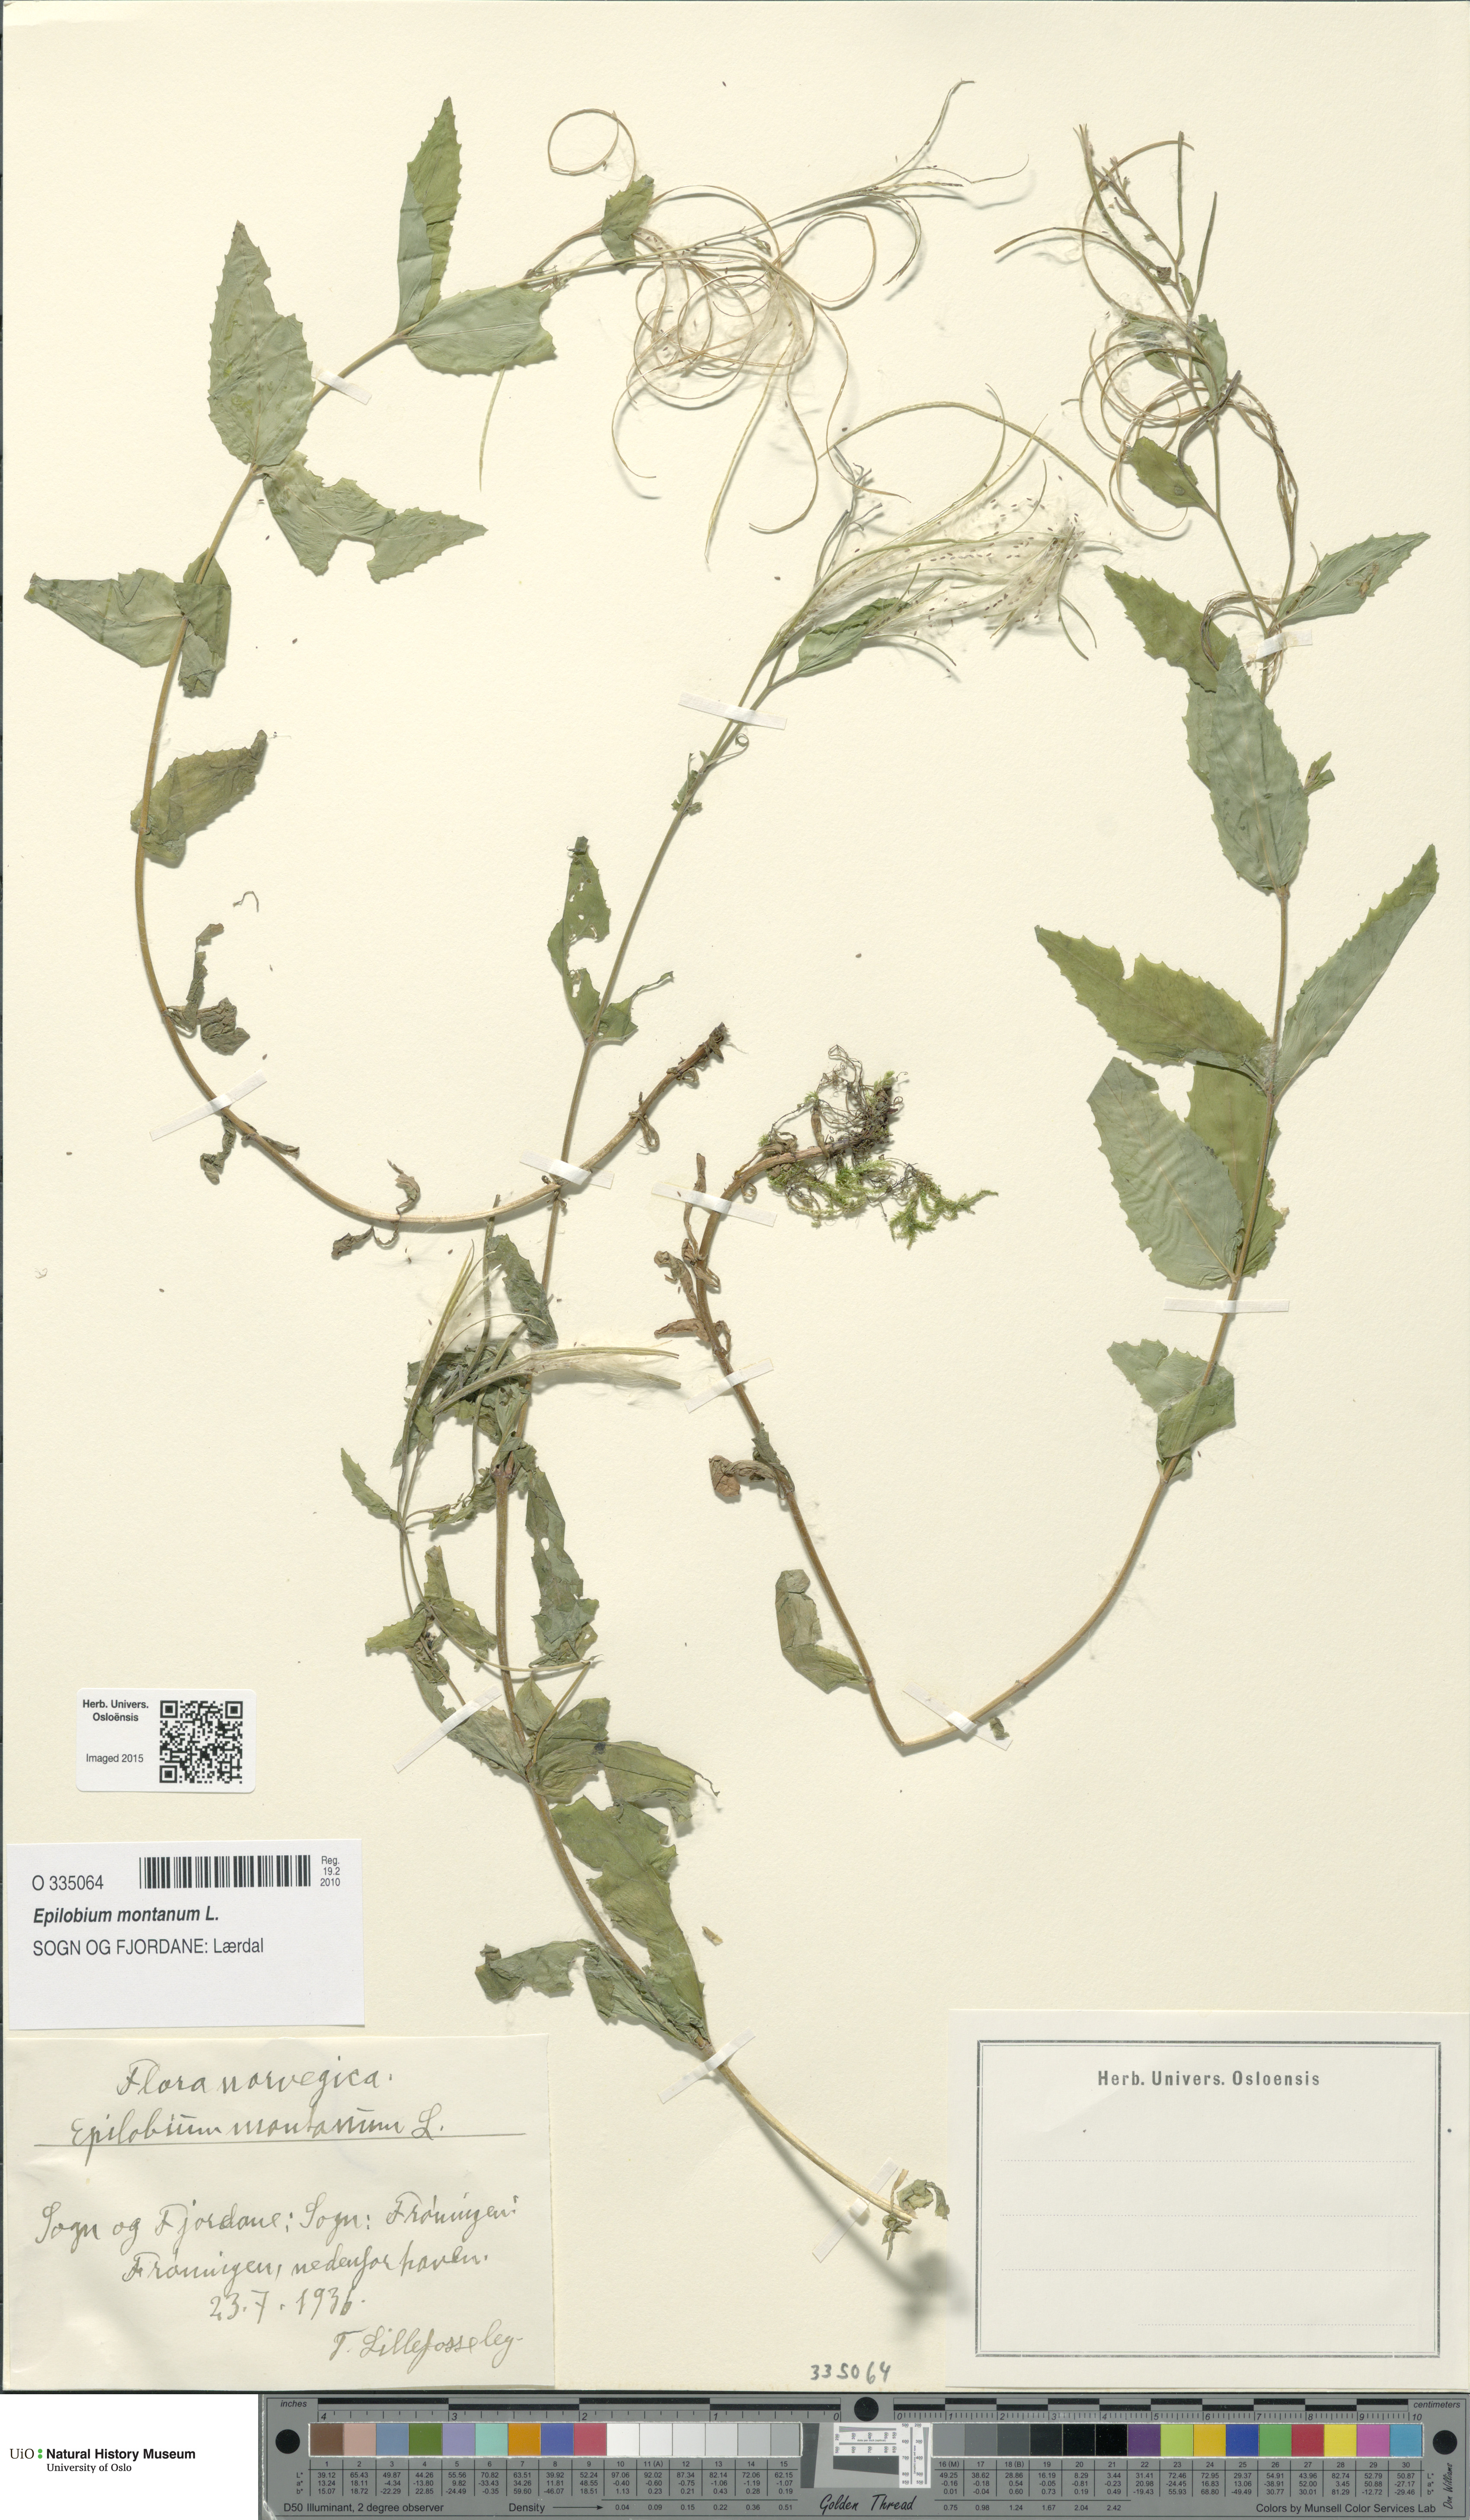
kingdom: Plantae
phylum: Tracheophyta
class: Magnoliopsida
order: Myrtales
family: Onagraceae
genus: Epilobium
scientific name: Epilobium montanum
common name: Broad-leaved willowherb
